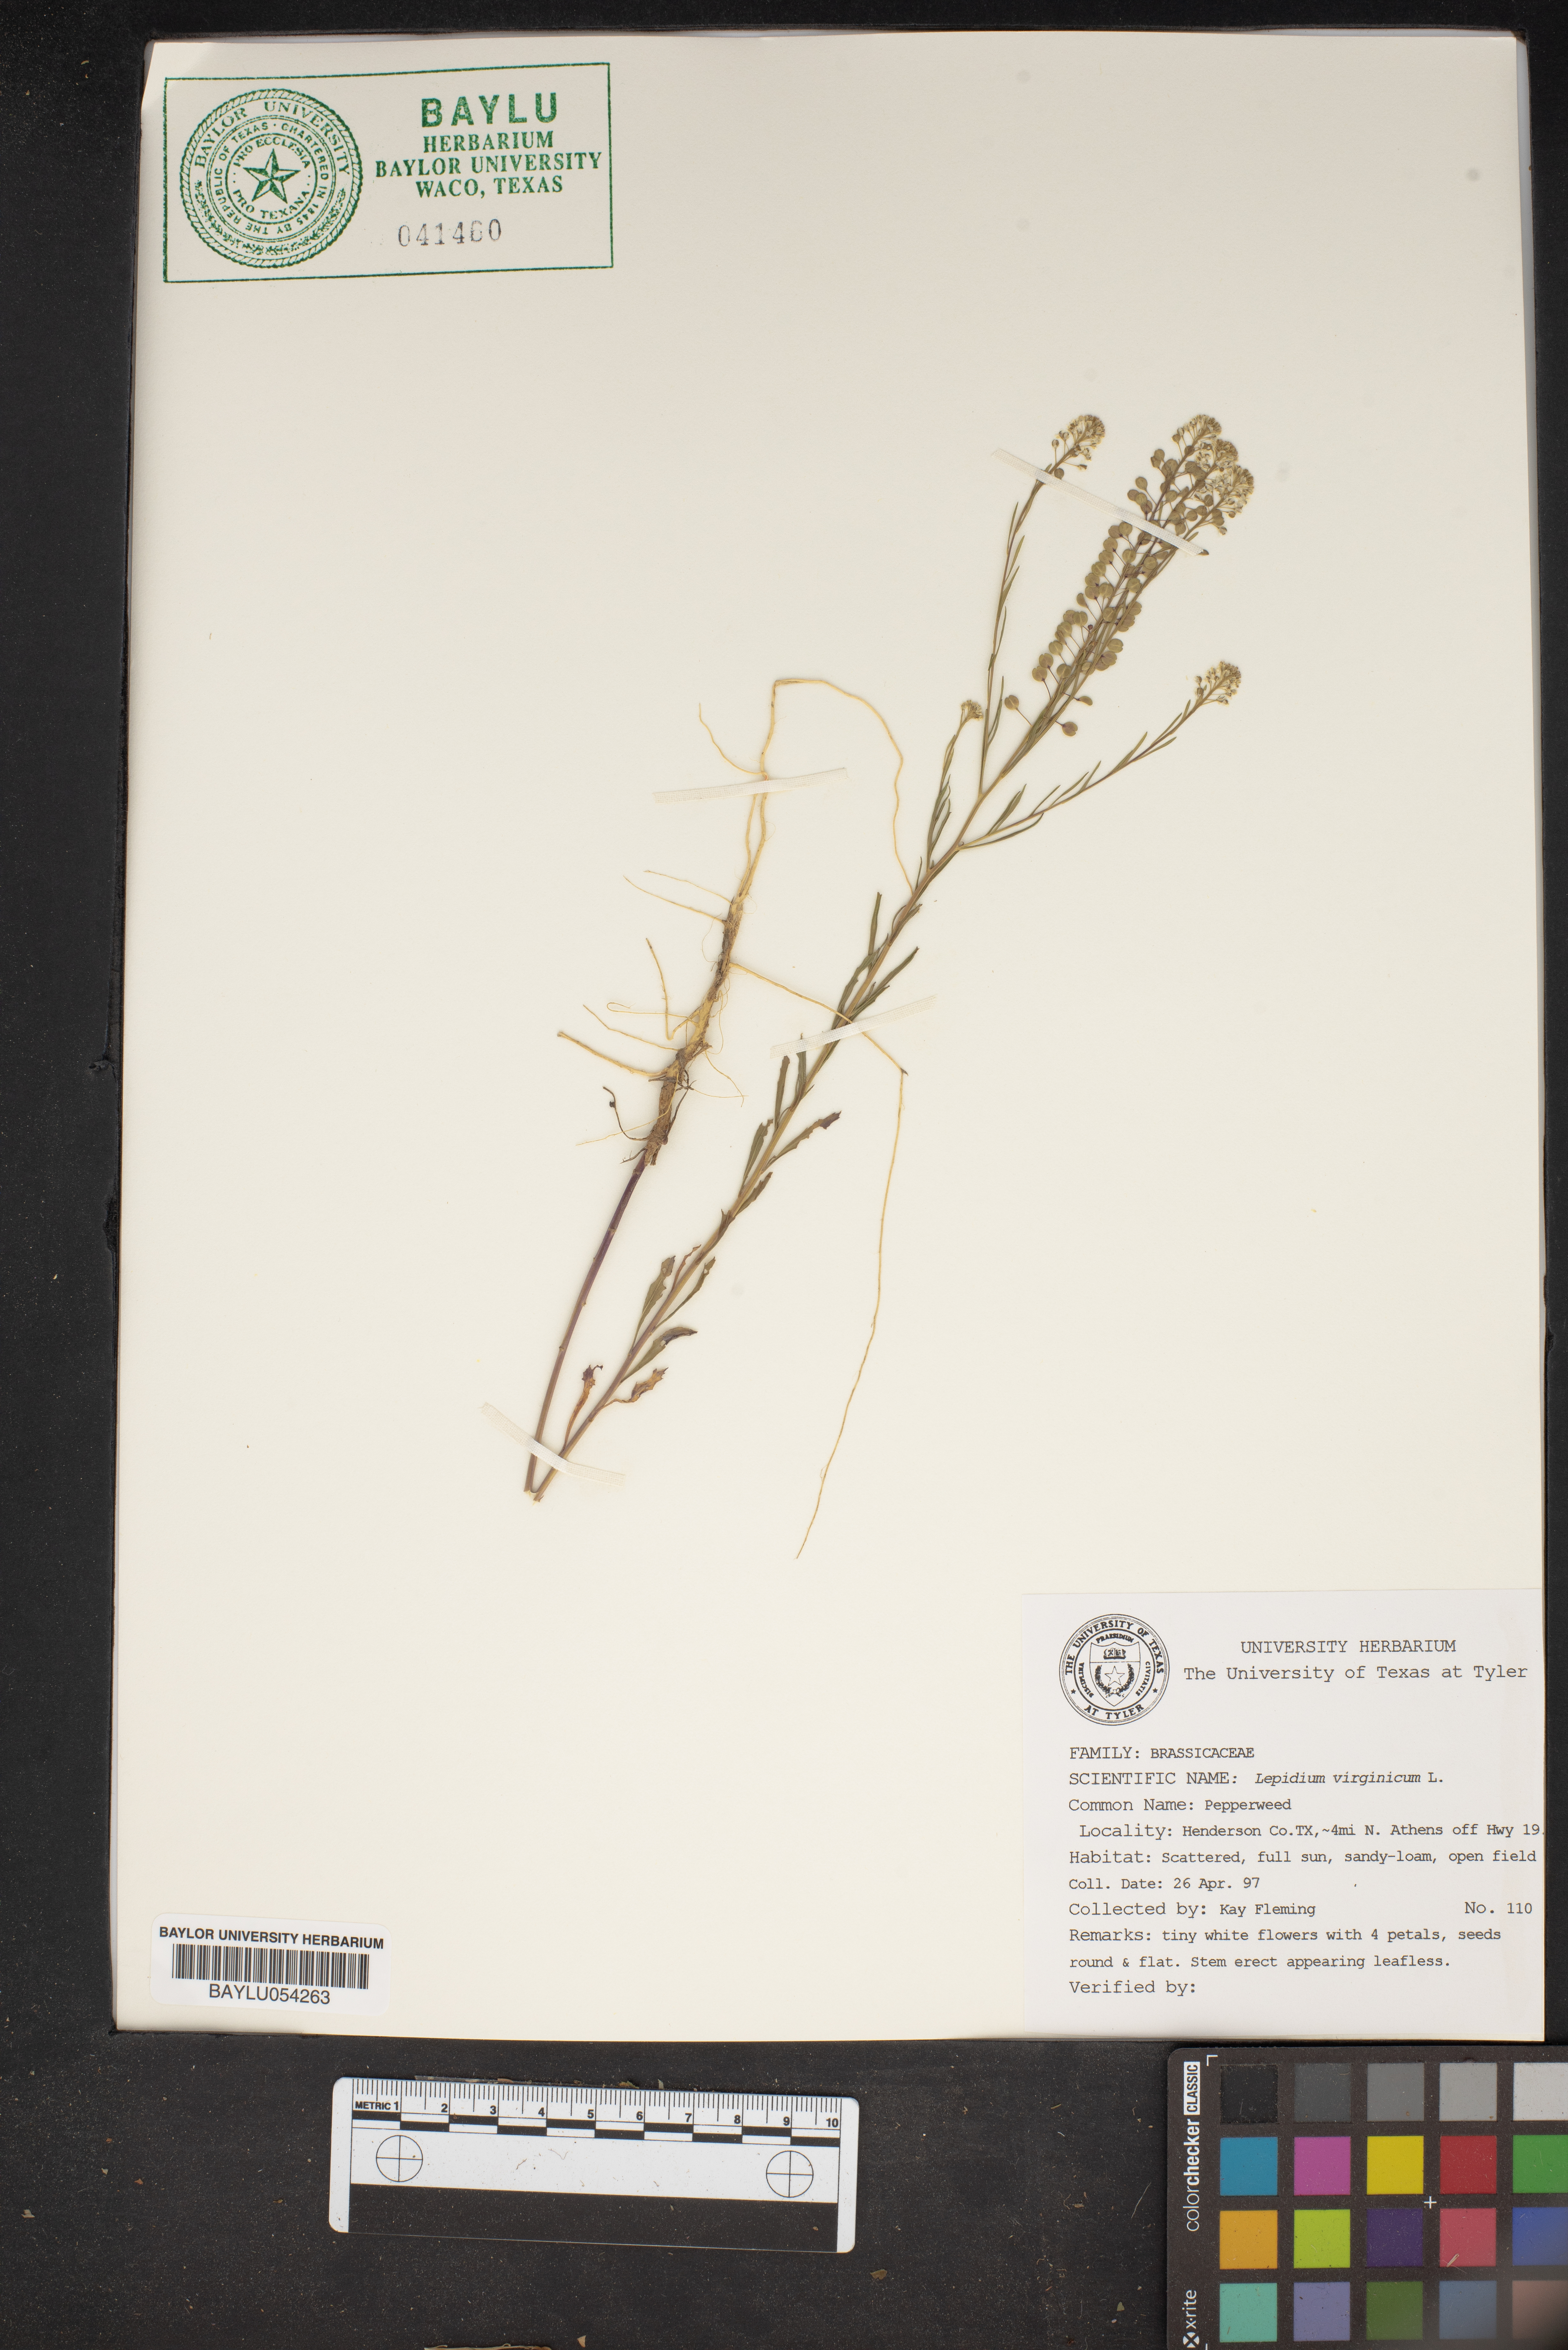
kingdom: Plantae
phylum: Tracheophyta
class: Magnoliopsida
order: Brassicales
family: Brassicaceae
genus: Lepidium
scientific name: Lepidium virginicum
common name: Least pepperwort
